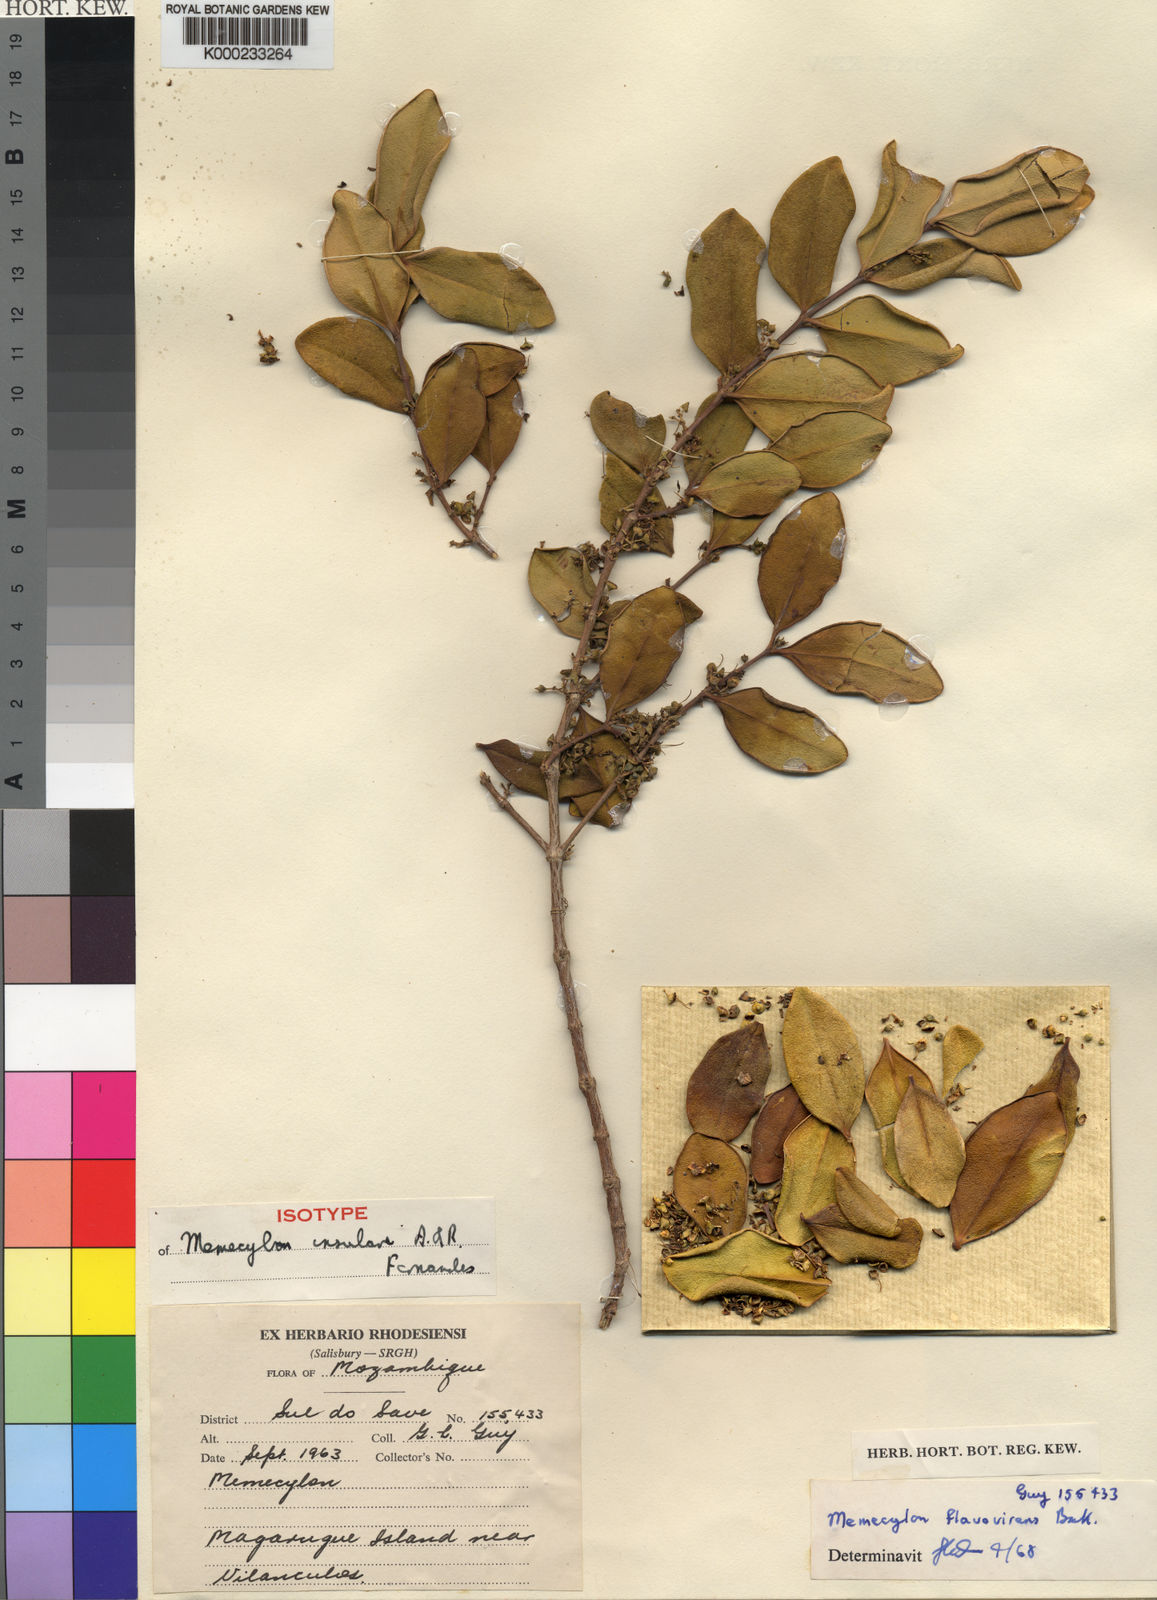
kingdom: Plantae
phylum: Tracheophyta
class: Magnoliopsida
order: Myrtales
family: Melastomataceae
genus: Memecylon
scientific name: Memecylon insulare
